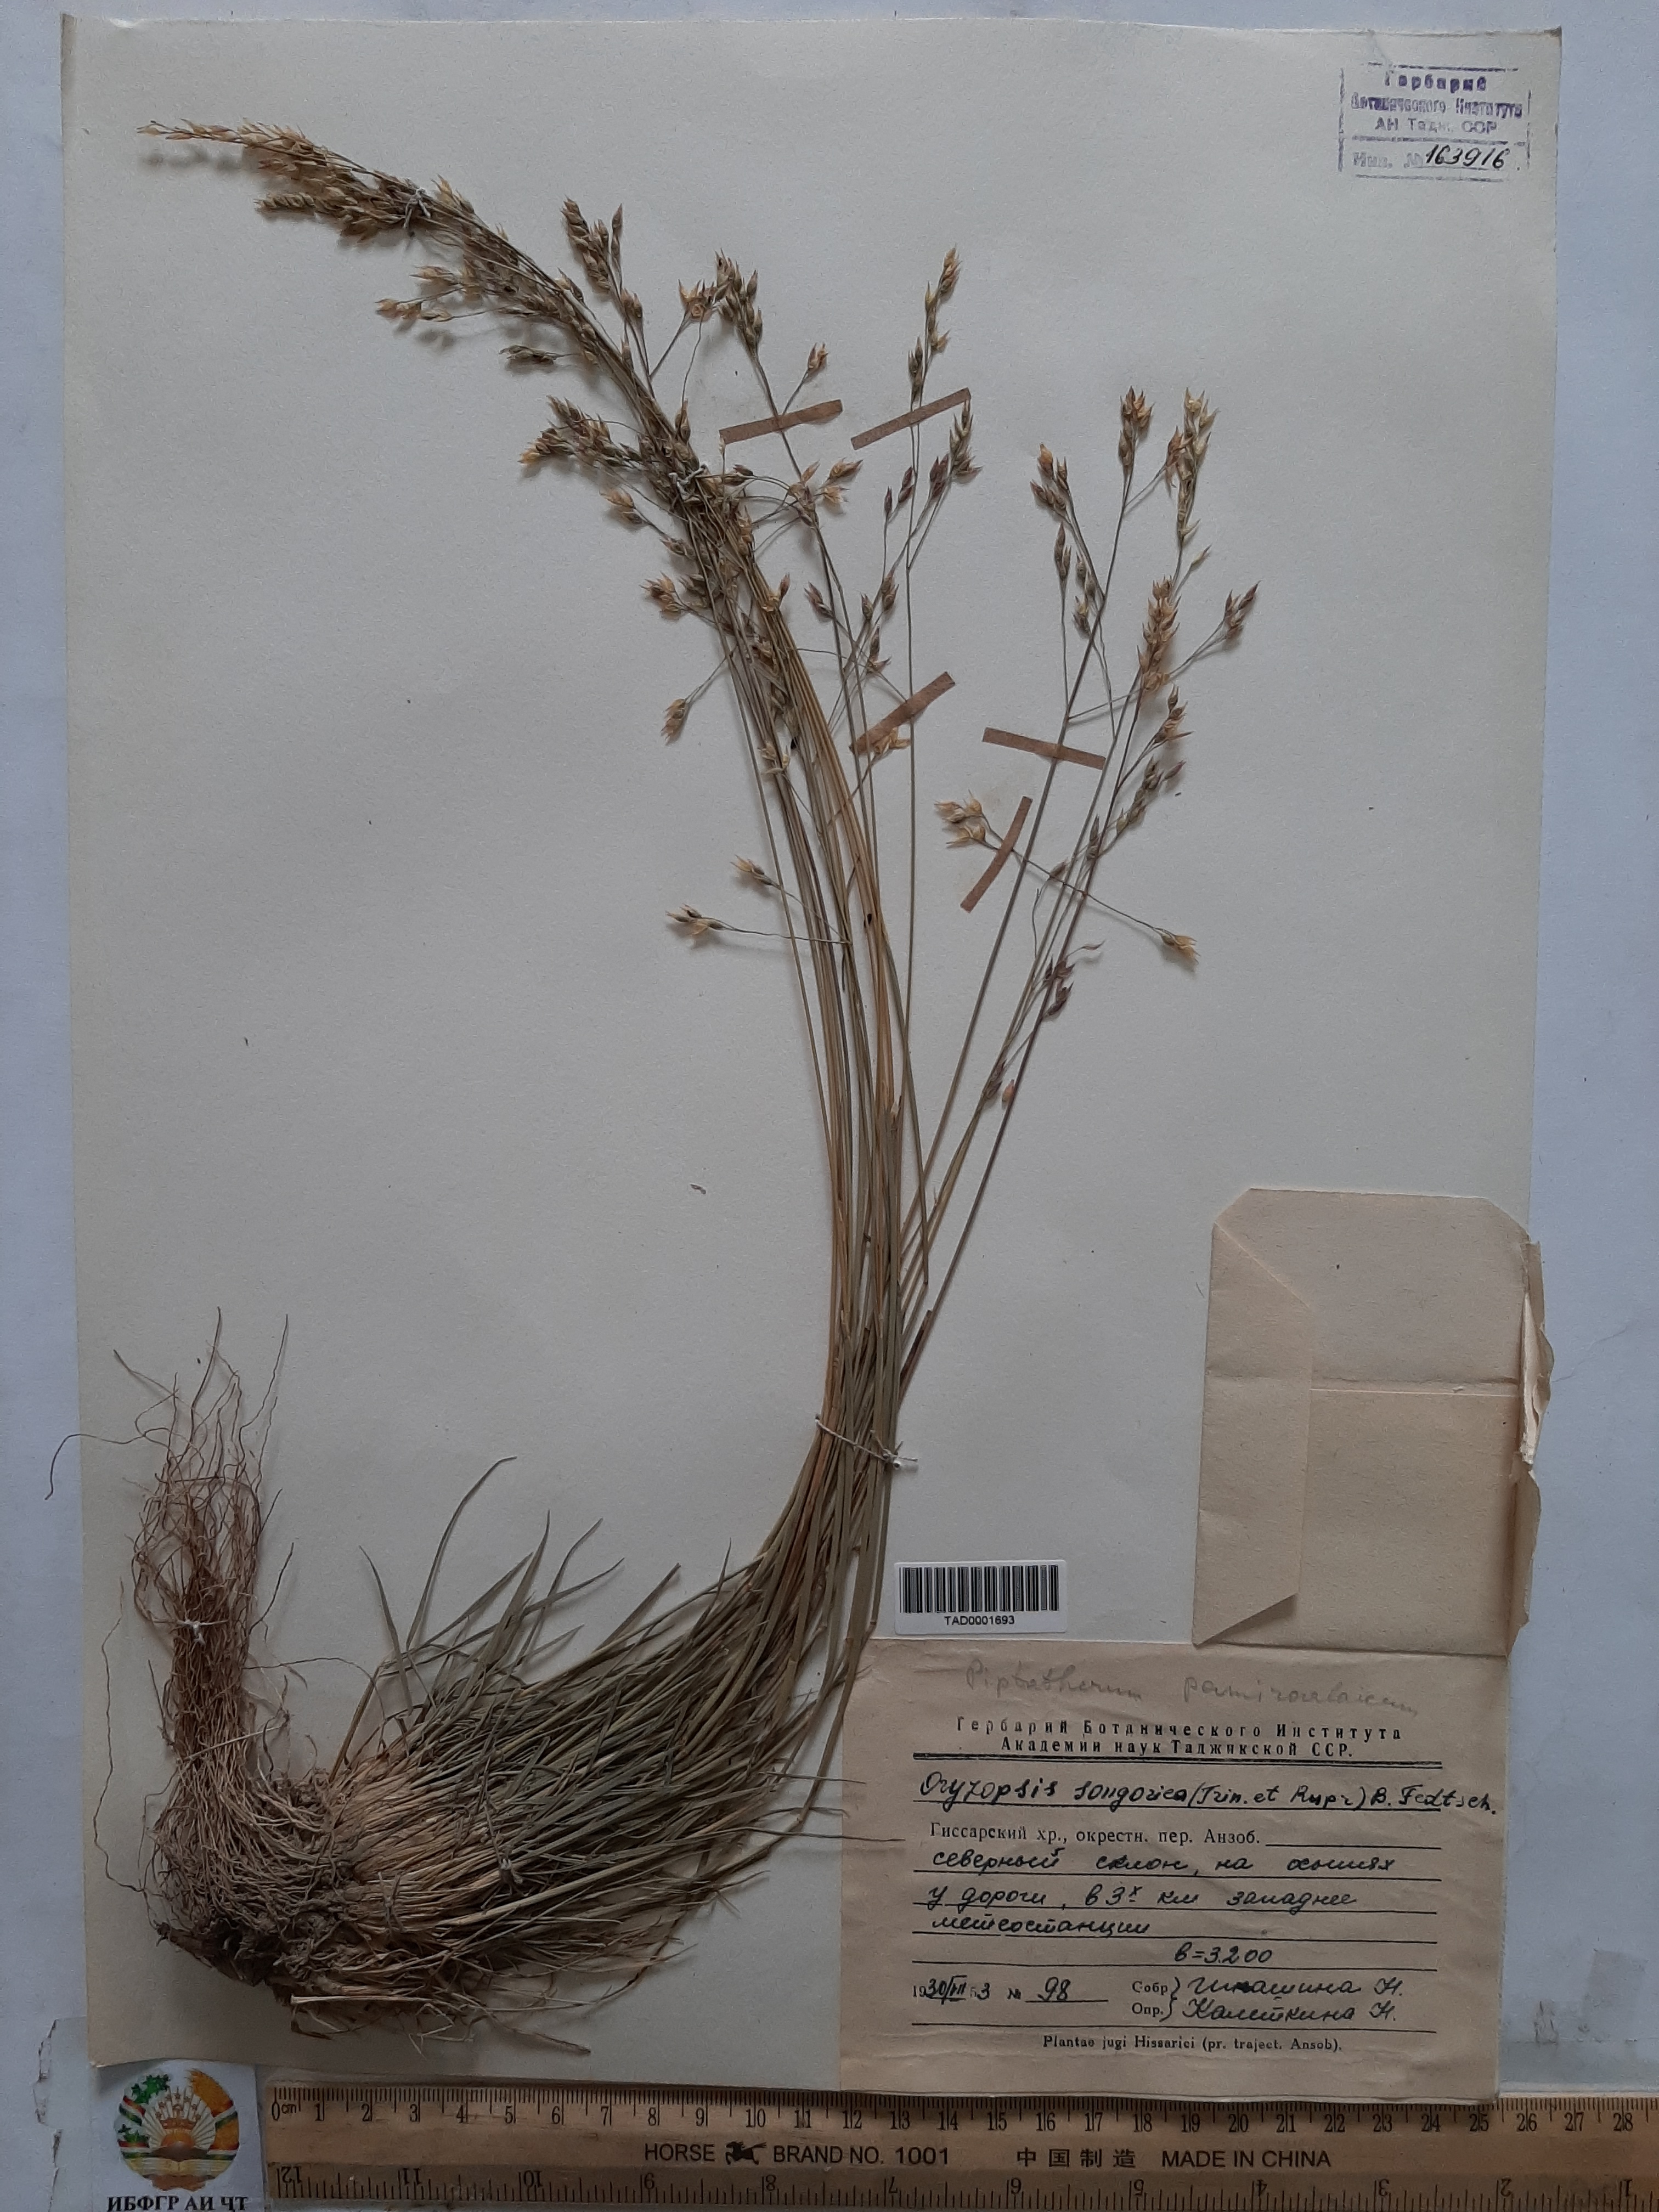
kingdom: Plantae
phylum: Tracheophyta
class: Liliopsida
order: Poales
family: Poaceae
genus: Piptatherum
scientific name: Piptatherum pamiralaicum
